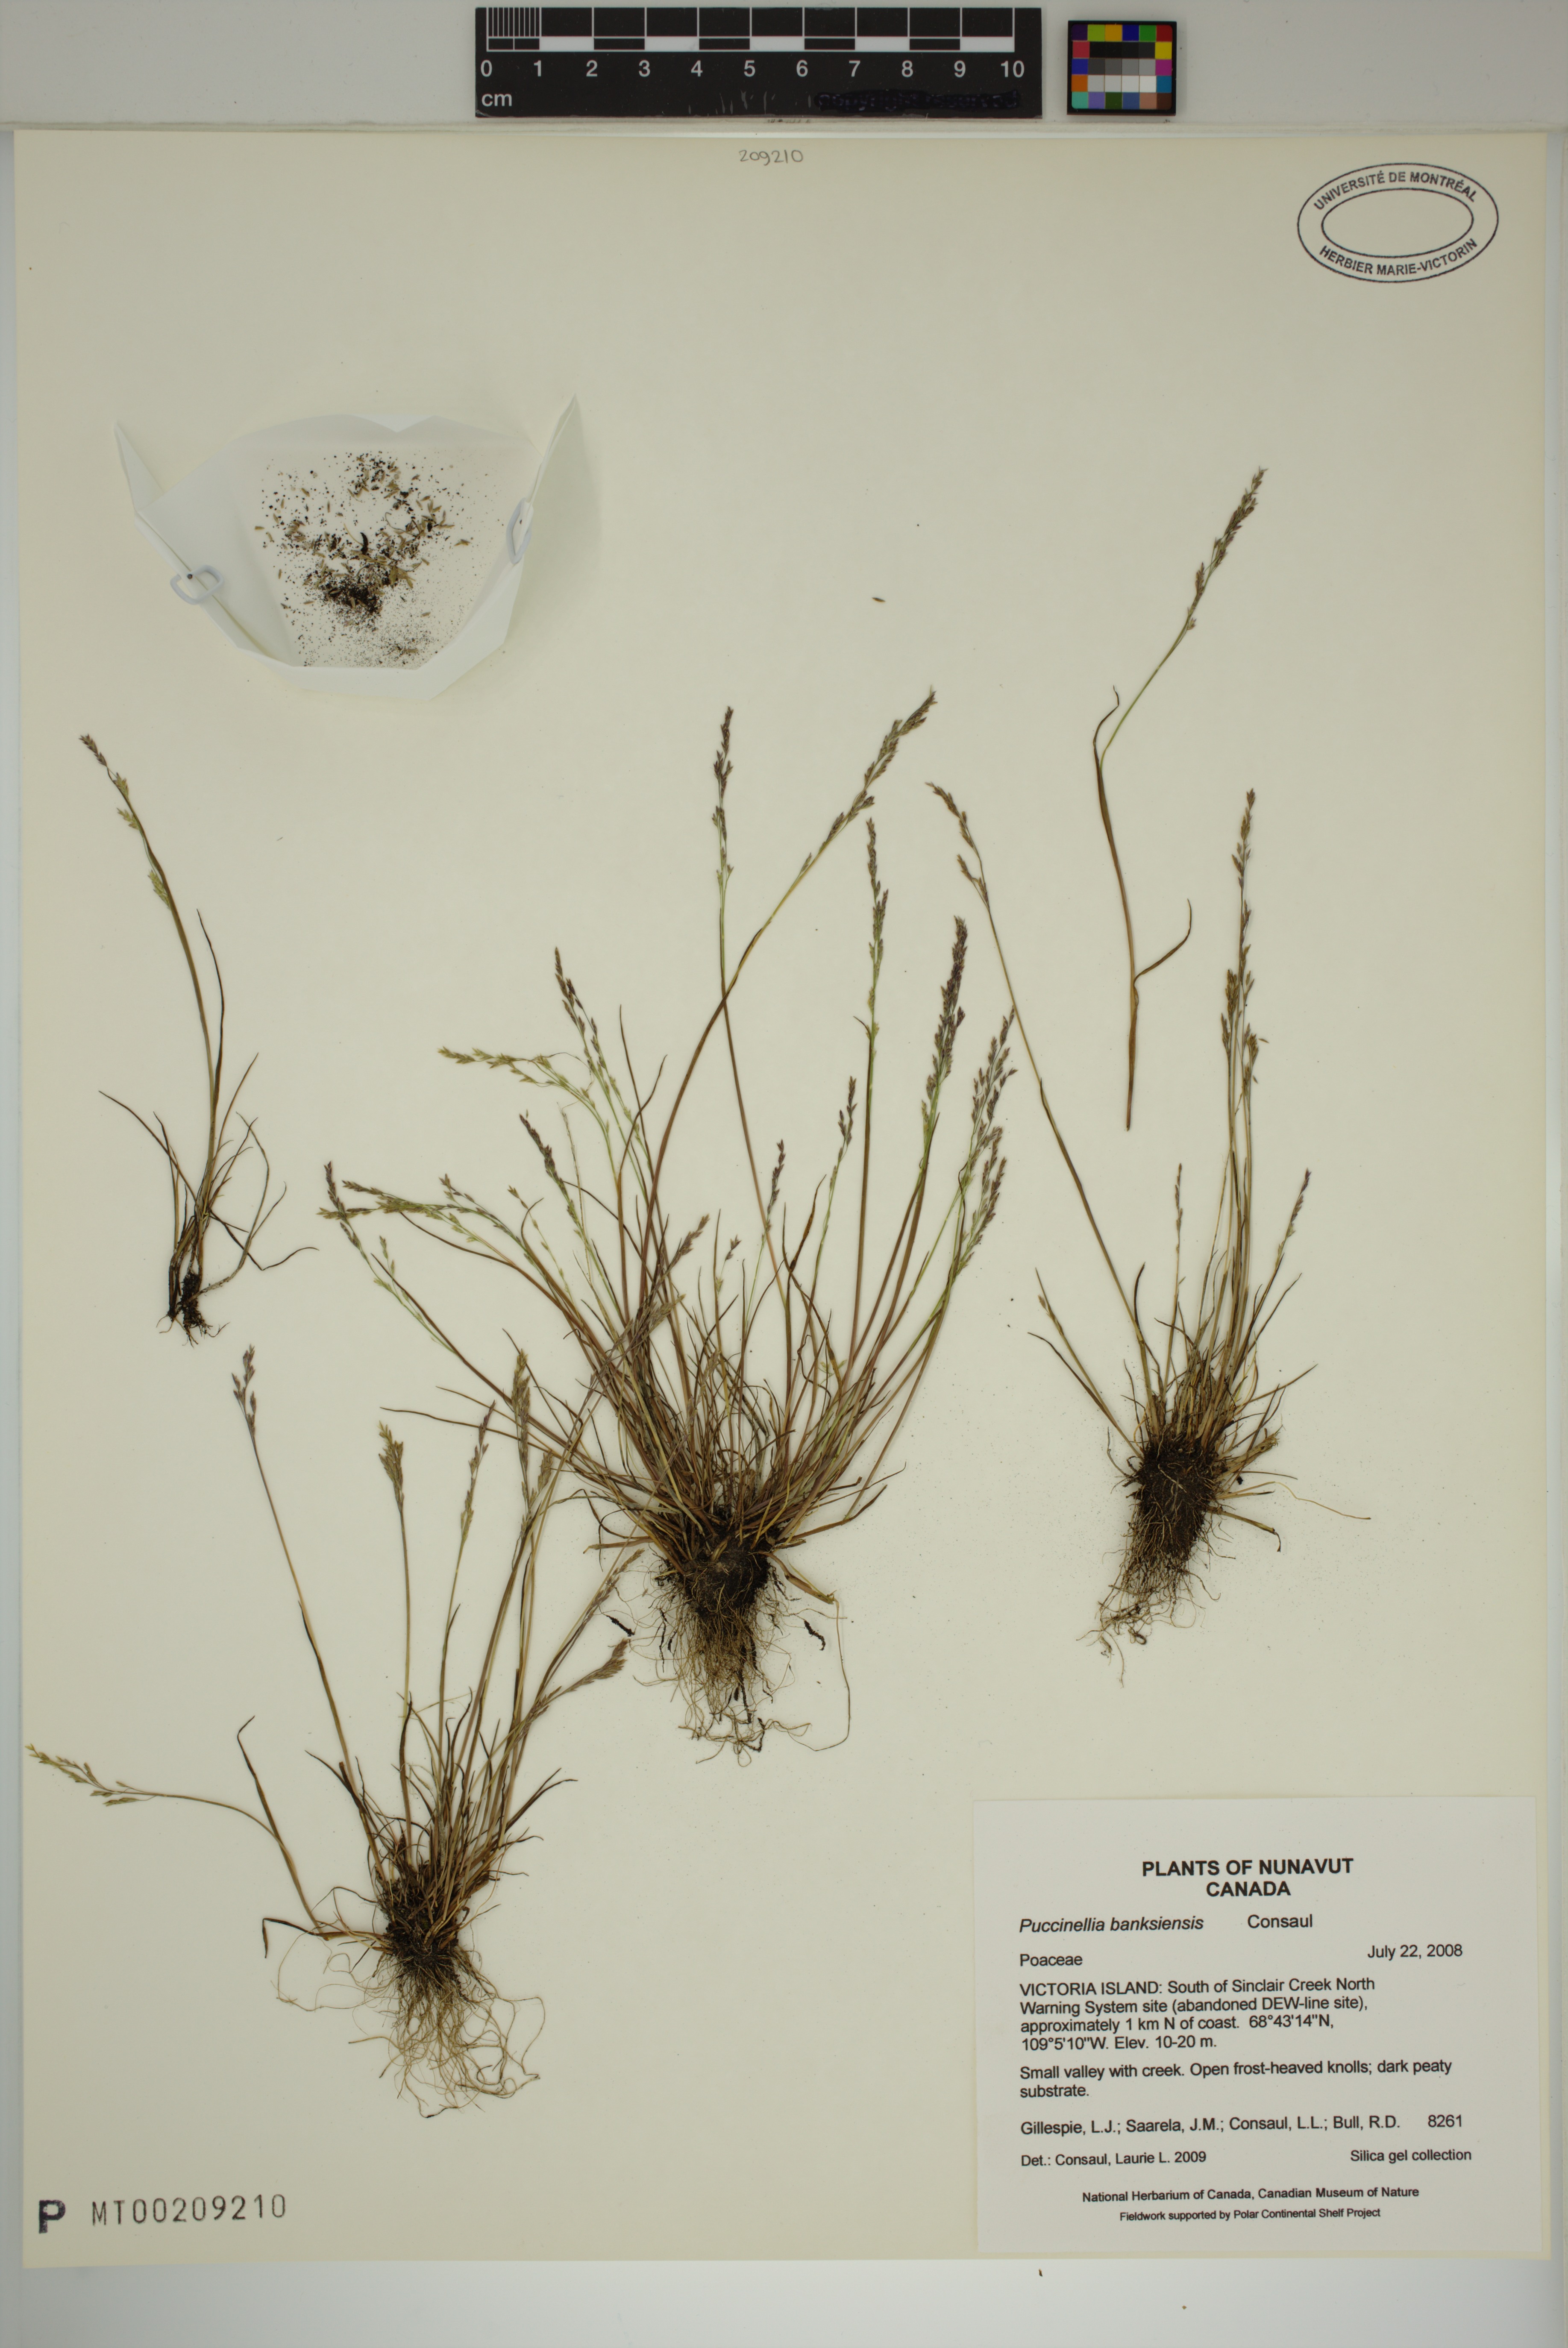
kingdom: Plantae
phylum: Tracheophyta
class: Liliopsida
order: Poales
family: Poaceae
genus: Puccinellia
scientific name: Puccinellia banksiensis
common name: Banks island alkaligrass
